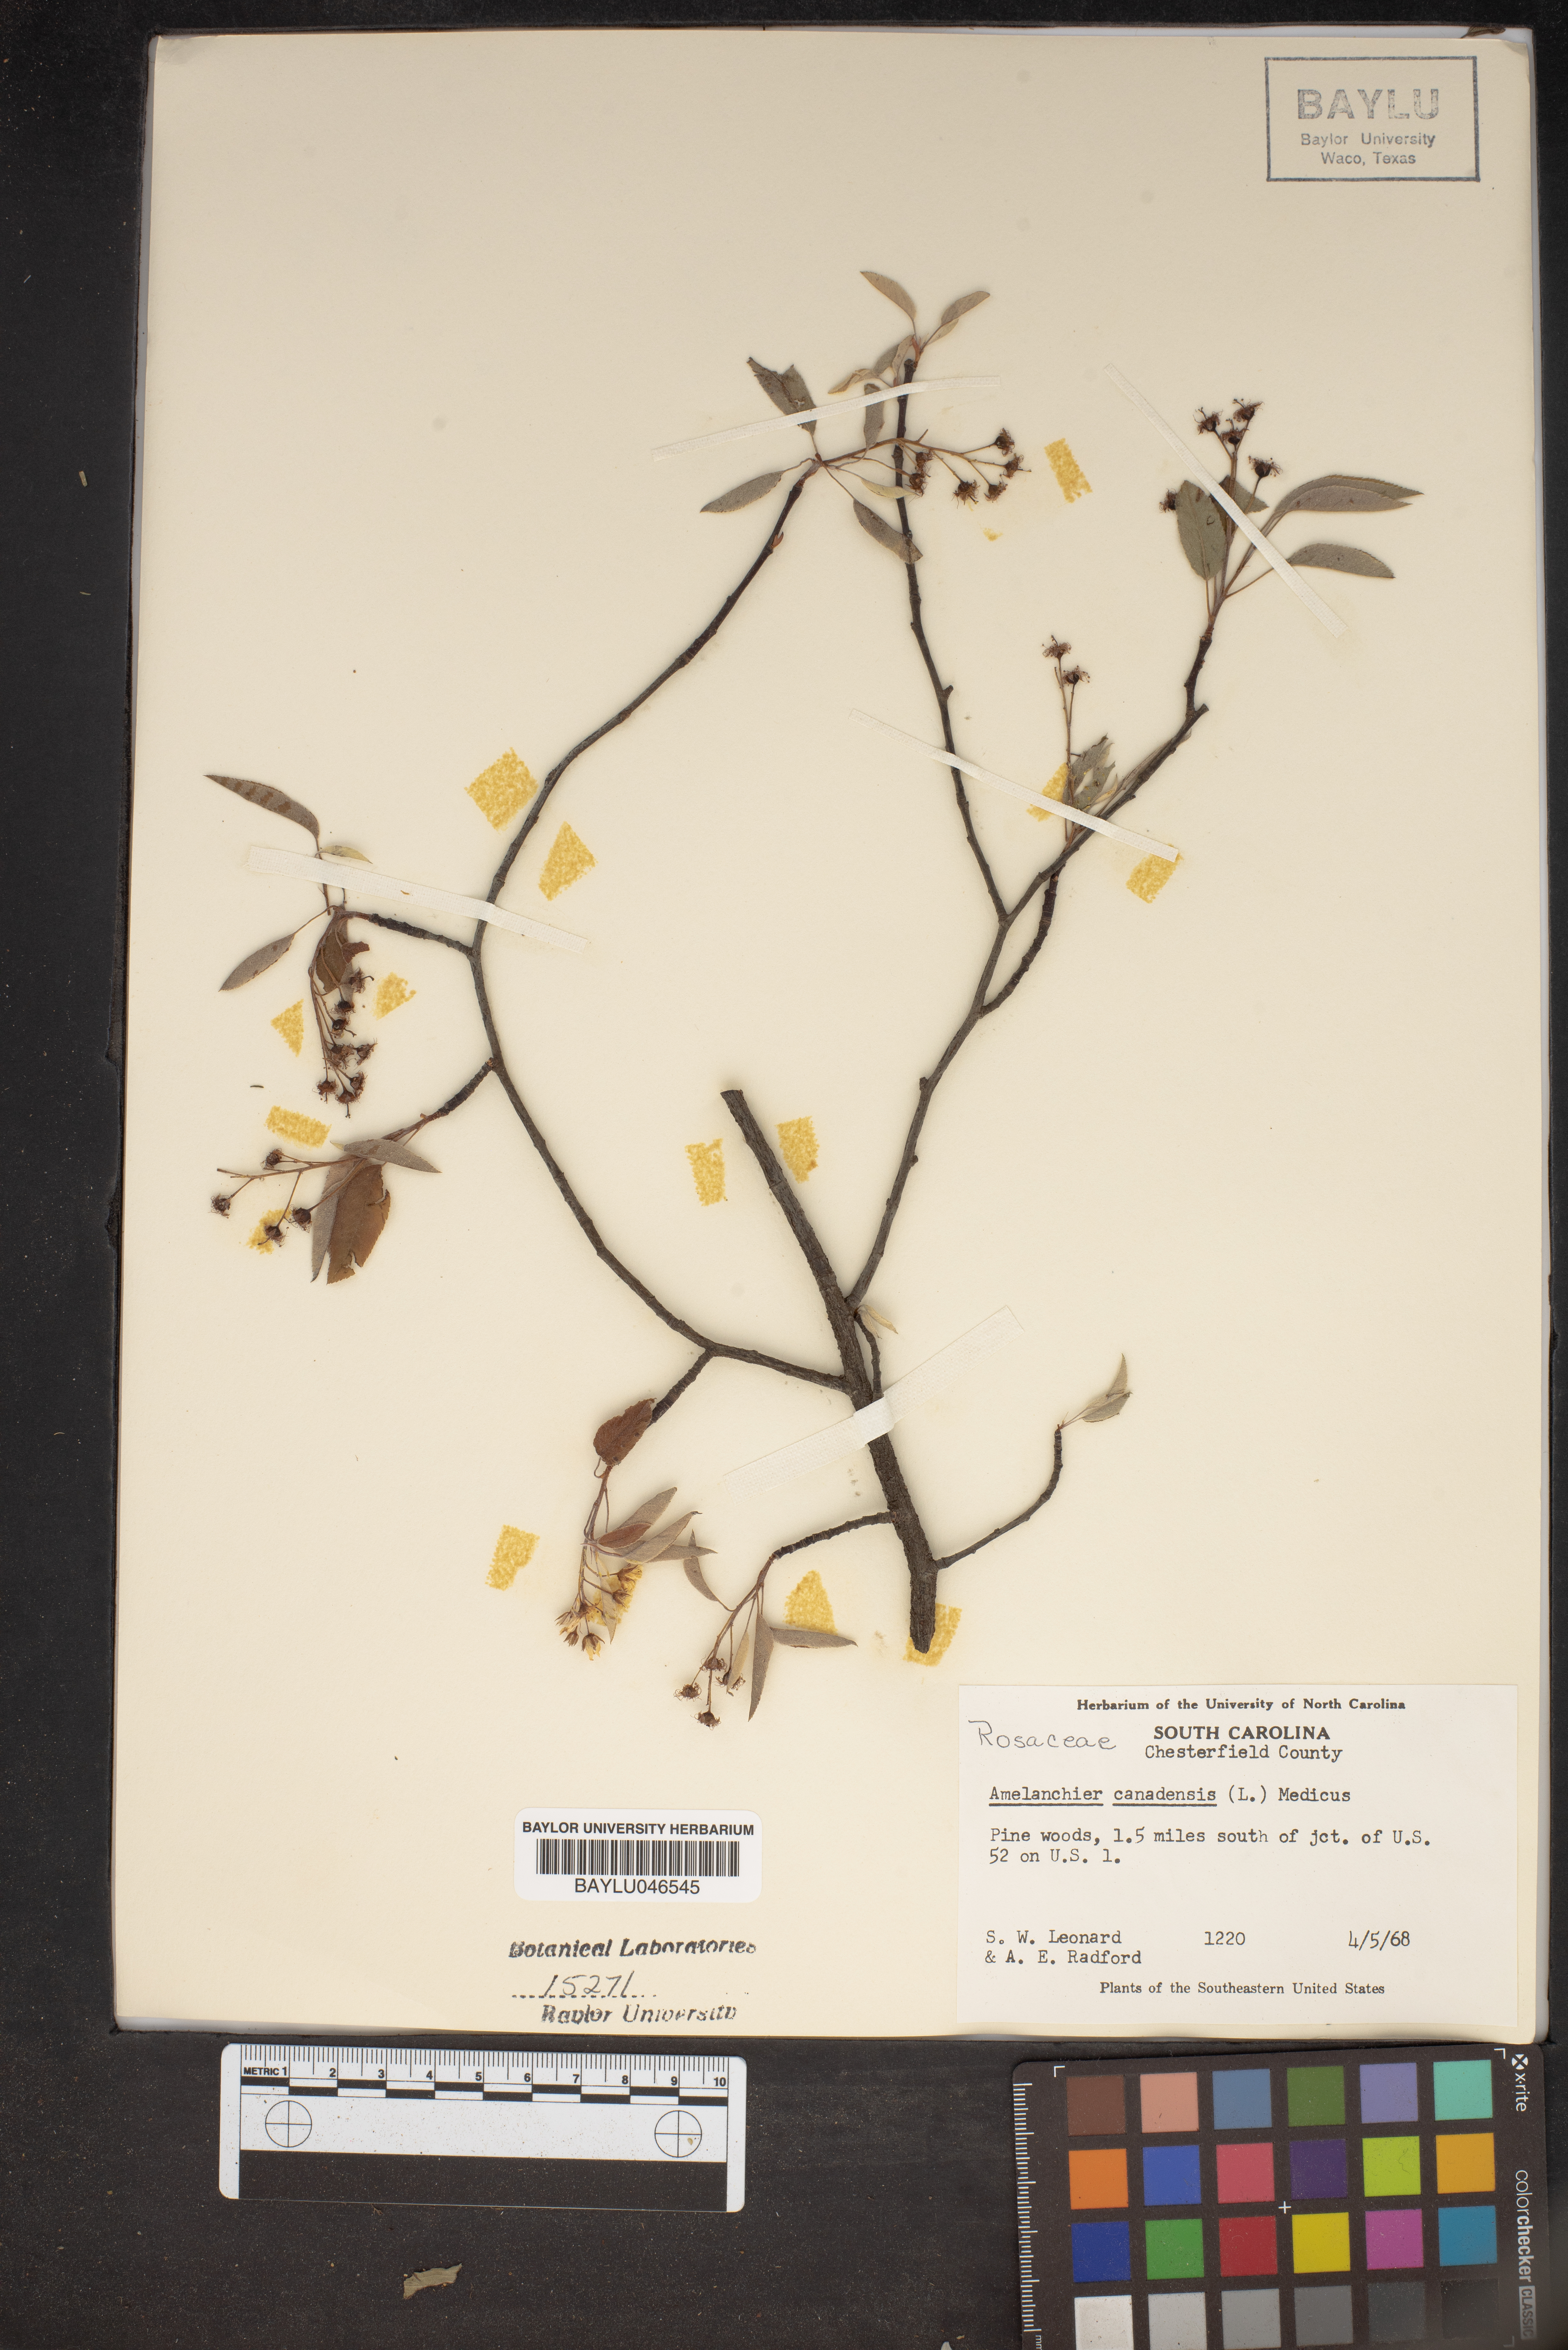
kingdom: Plantae
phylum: Tracheophyta
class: Magnoliopsida
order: Rosales
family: Rosaceae
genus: Amelanchier
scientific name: Amelanchier canadensis
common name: Thicket serviceberry
